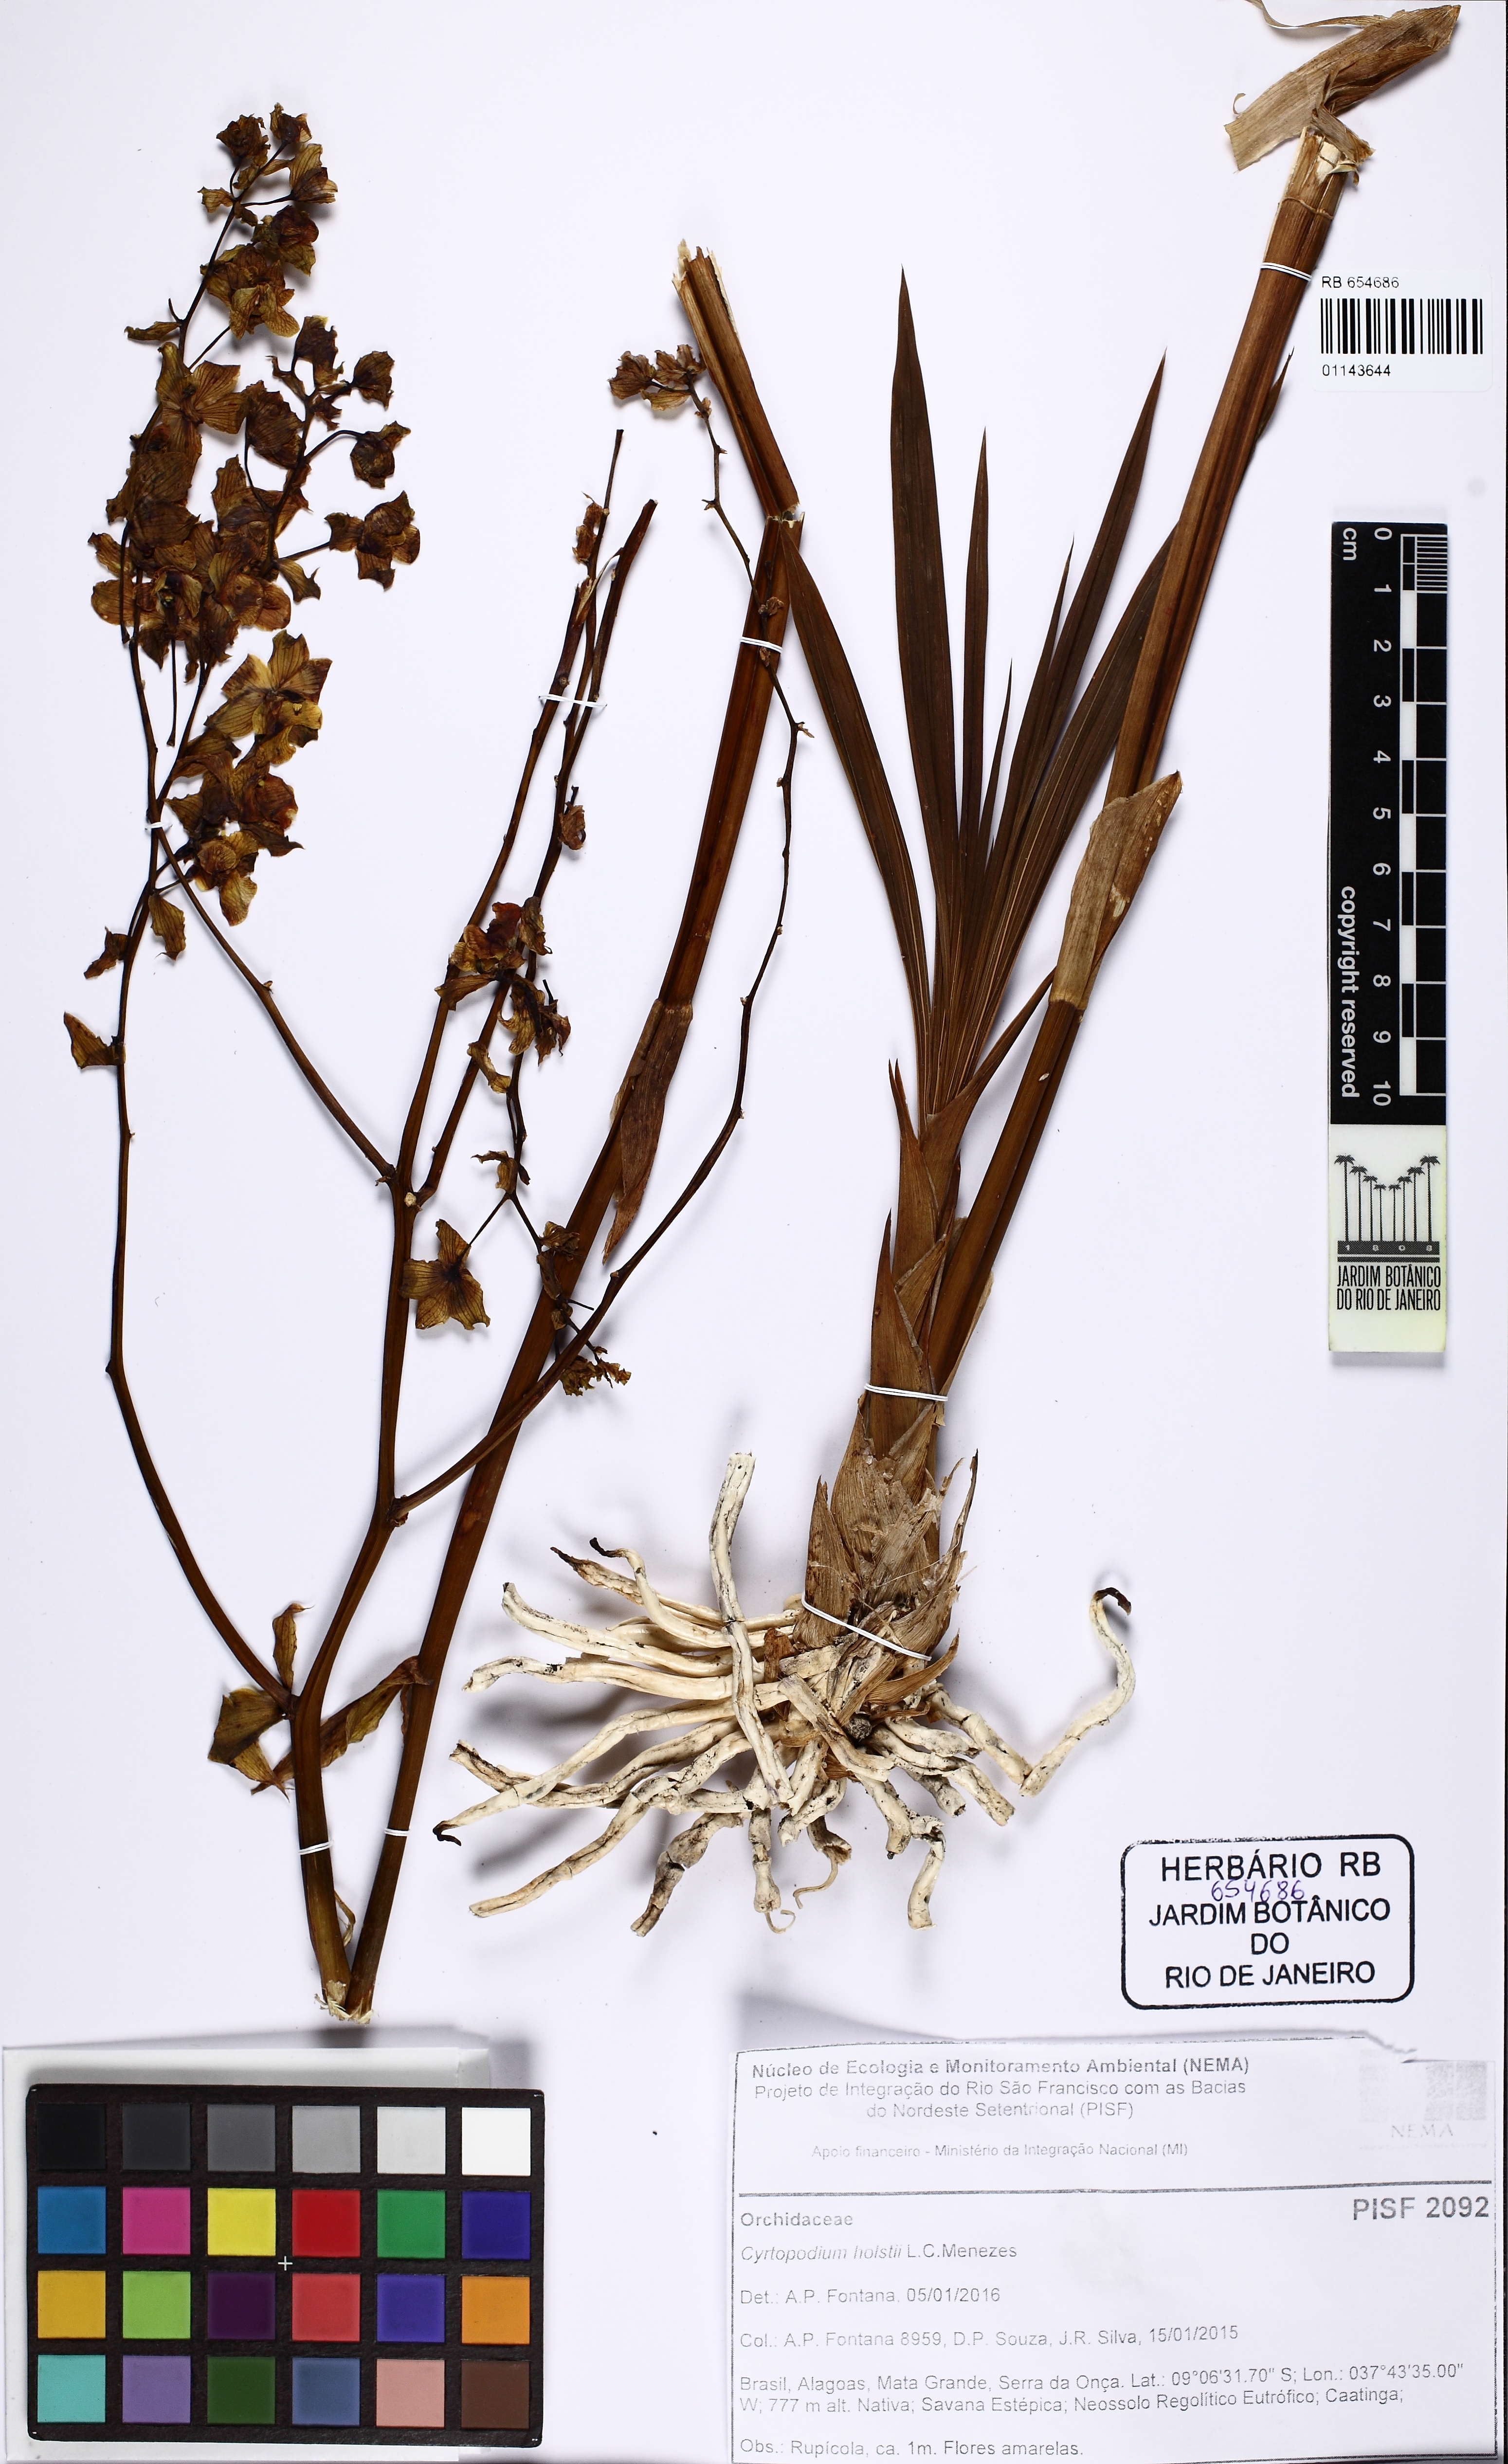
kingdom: Plantae
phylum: Tracheophyta
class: Liliopsida
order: Asparagales
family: Orchidaceae
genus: Cyrtopodium
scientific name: Cyrtopodium holstii
